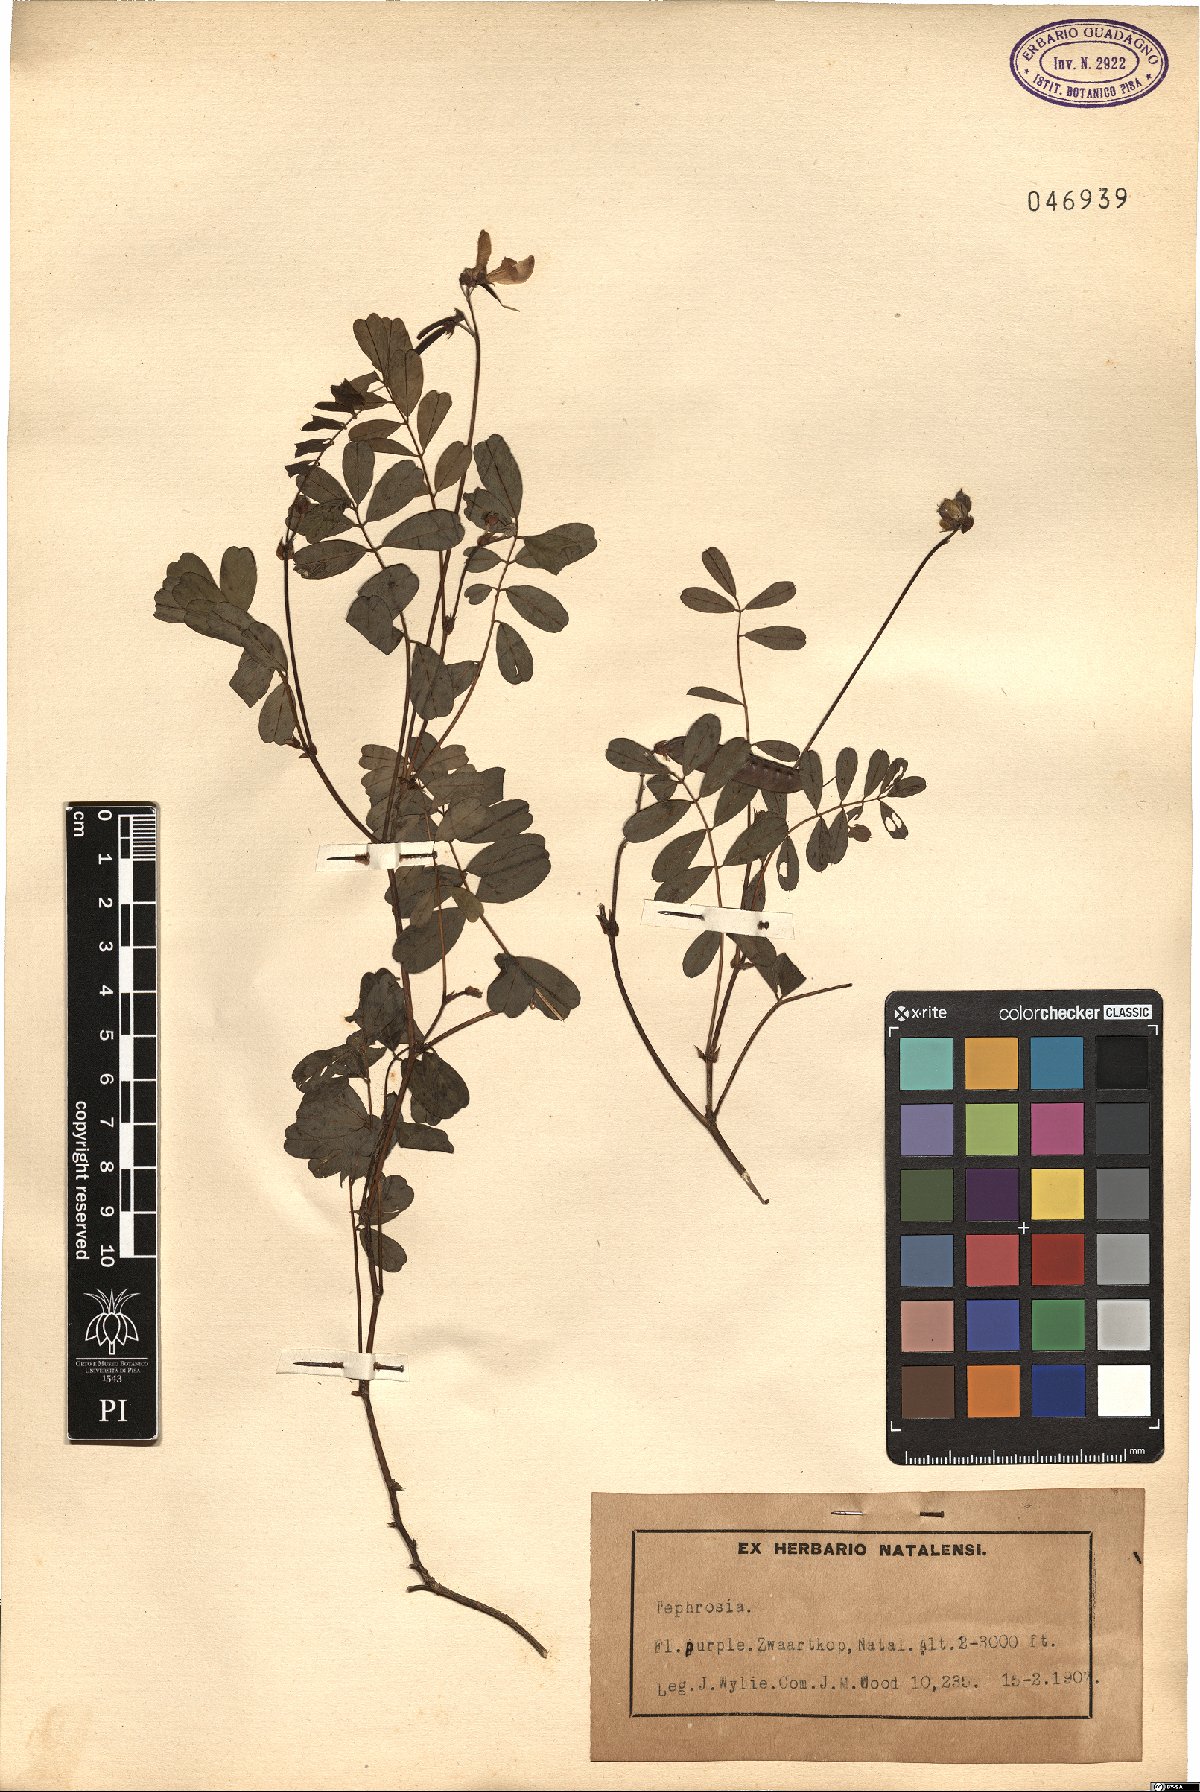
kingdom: Plantae
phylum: Tracheophyta
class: Magnoliopsida
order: Fabales
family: Fabaceae
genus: Tephrosia
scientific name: Tephrosia
